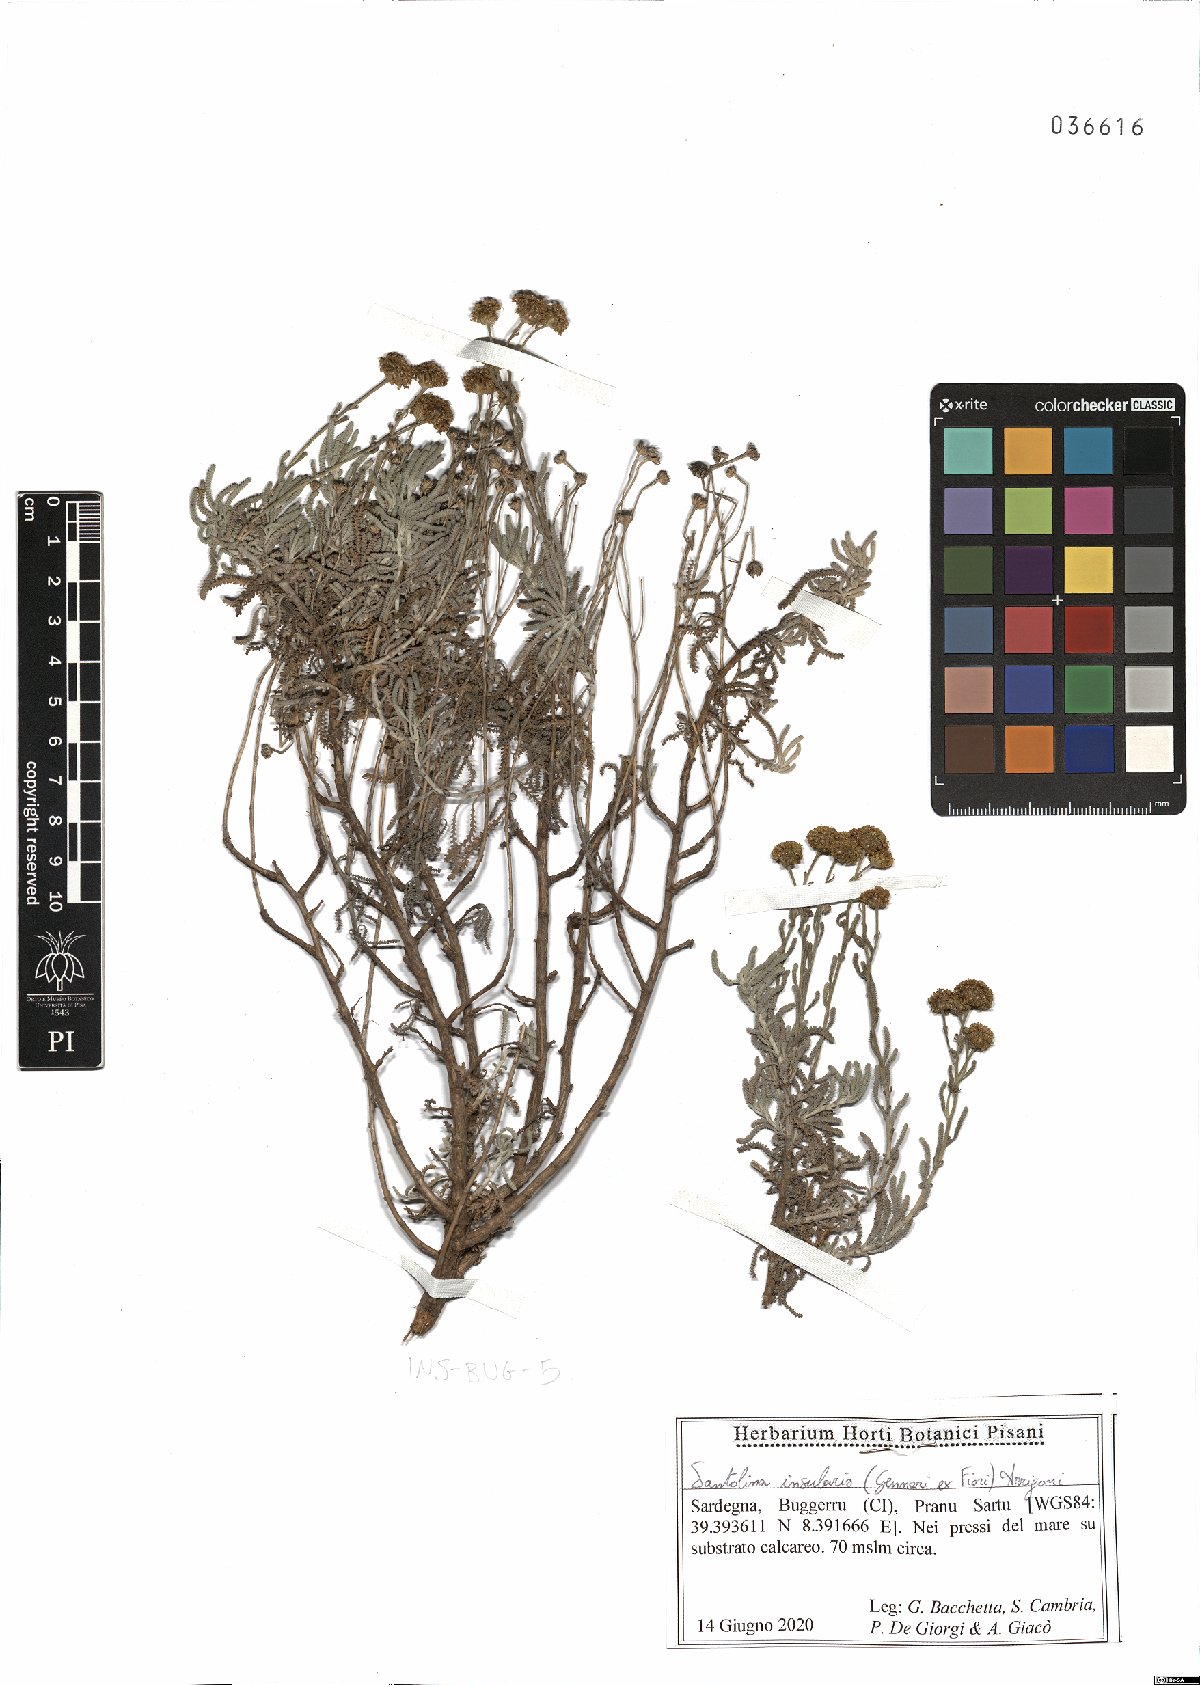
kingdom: Plantae
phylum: Tracheophyta
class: Magnoliopsida
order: Asterales
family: Asteraceae
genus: Santolina
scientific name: Santolina insularis
